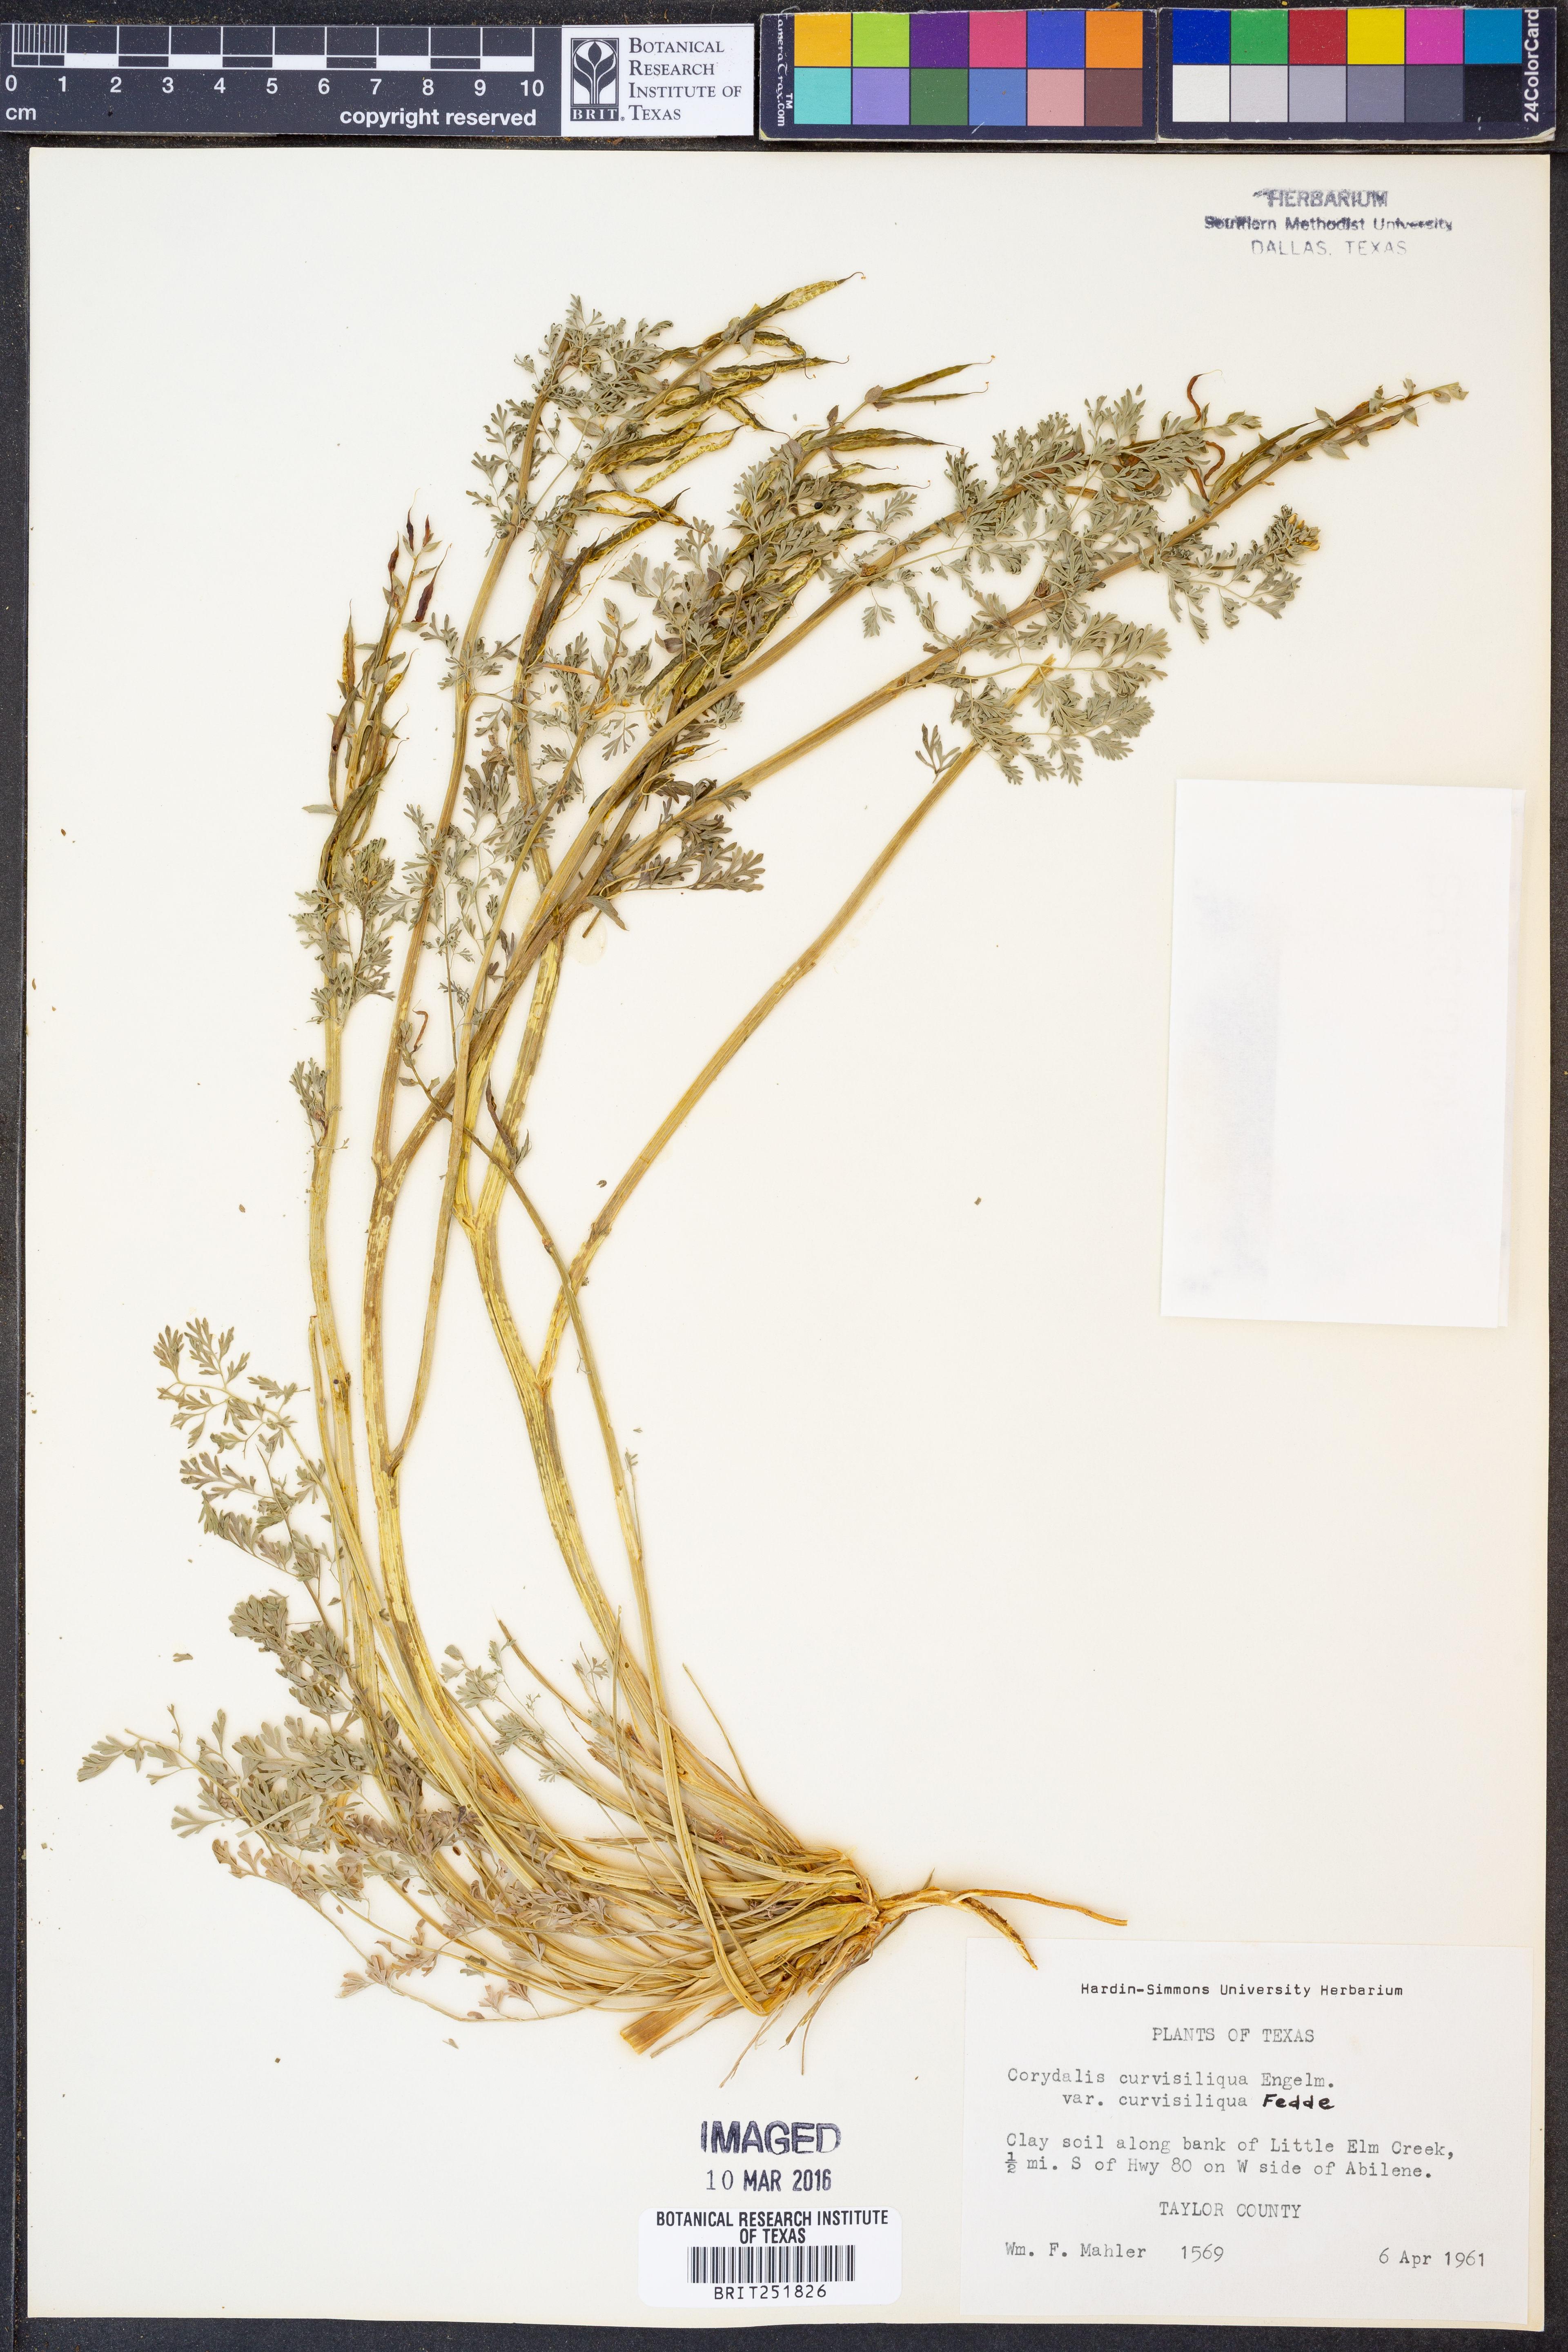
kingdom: Plantae
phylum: Tracheophyta
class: Magnoliopsida
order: Ranunculales
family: Papaveraceae
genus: Corydalis
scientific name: Corydalis curvisiliqua
